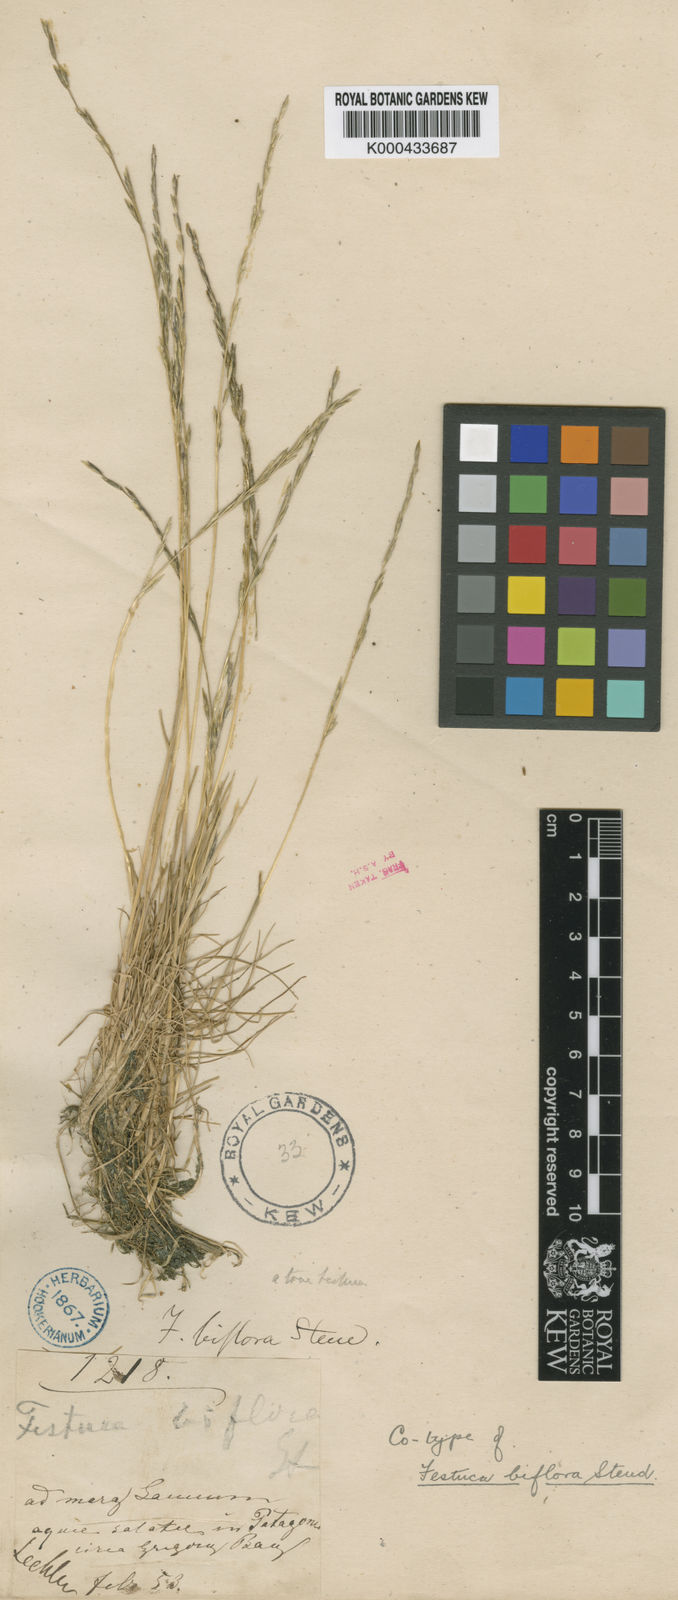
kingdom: Plantae
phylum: Tracheophyta
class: Liliopsida
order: Poales
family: Poaceae
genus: Puccinellia
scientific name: Puccinellia biflora
